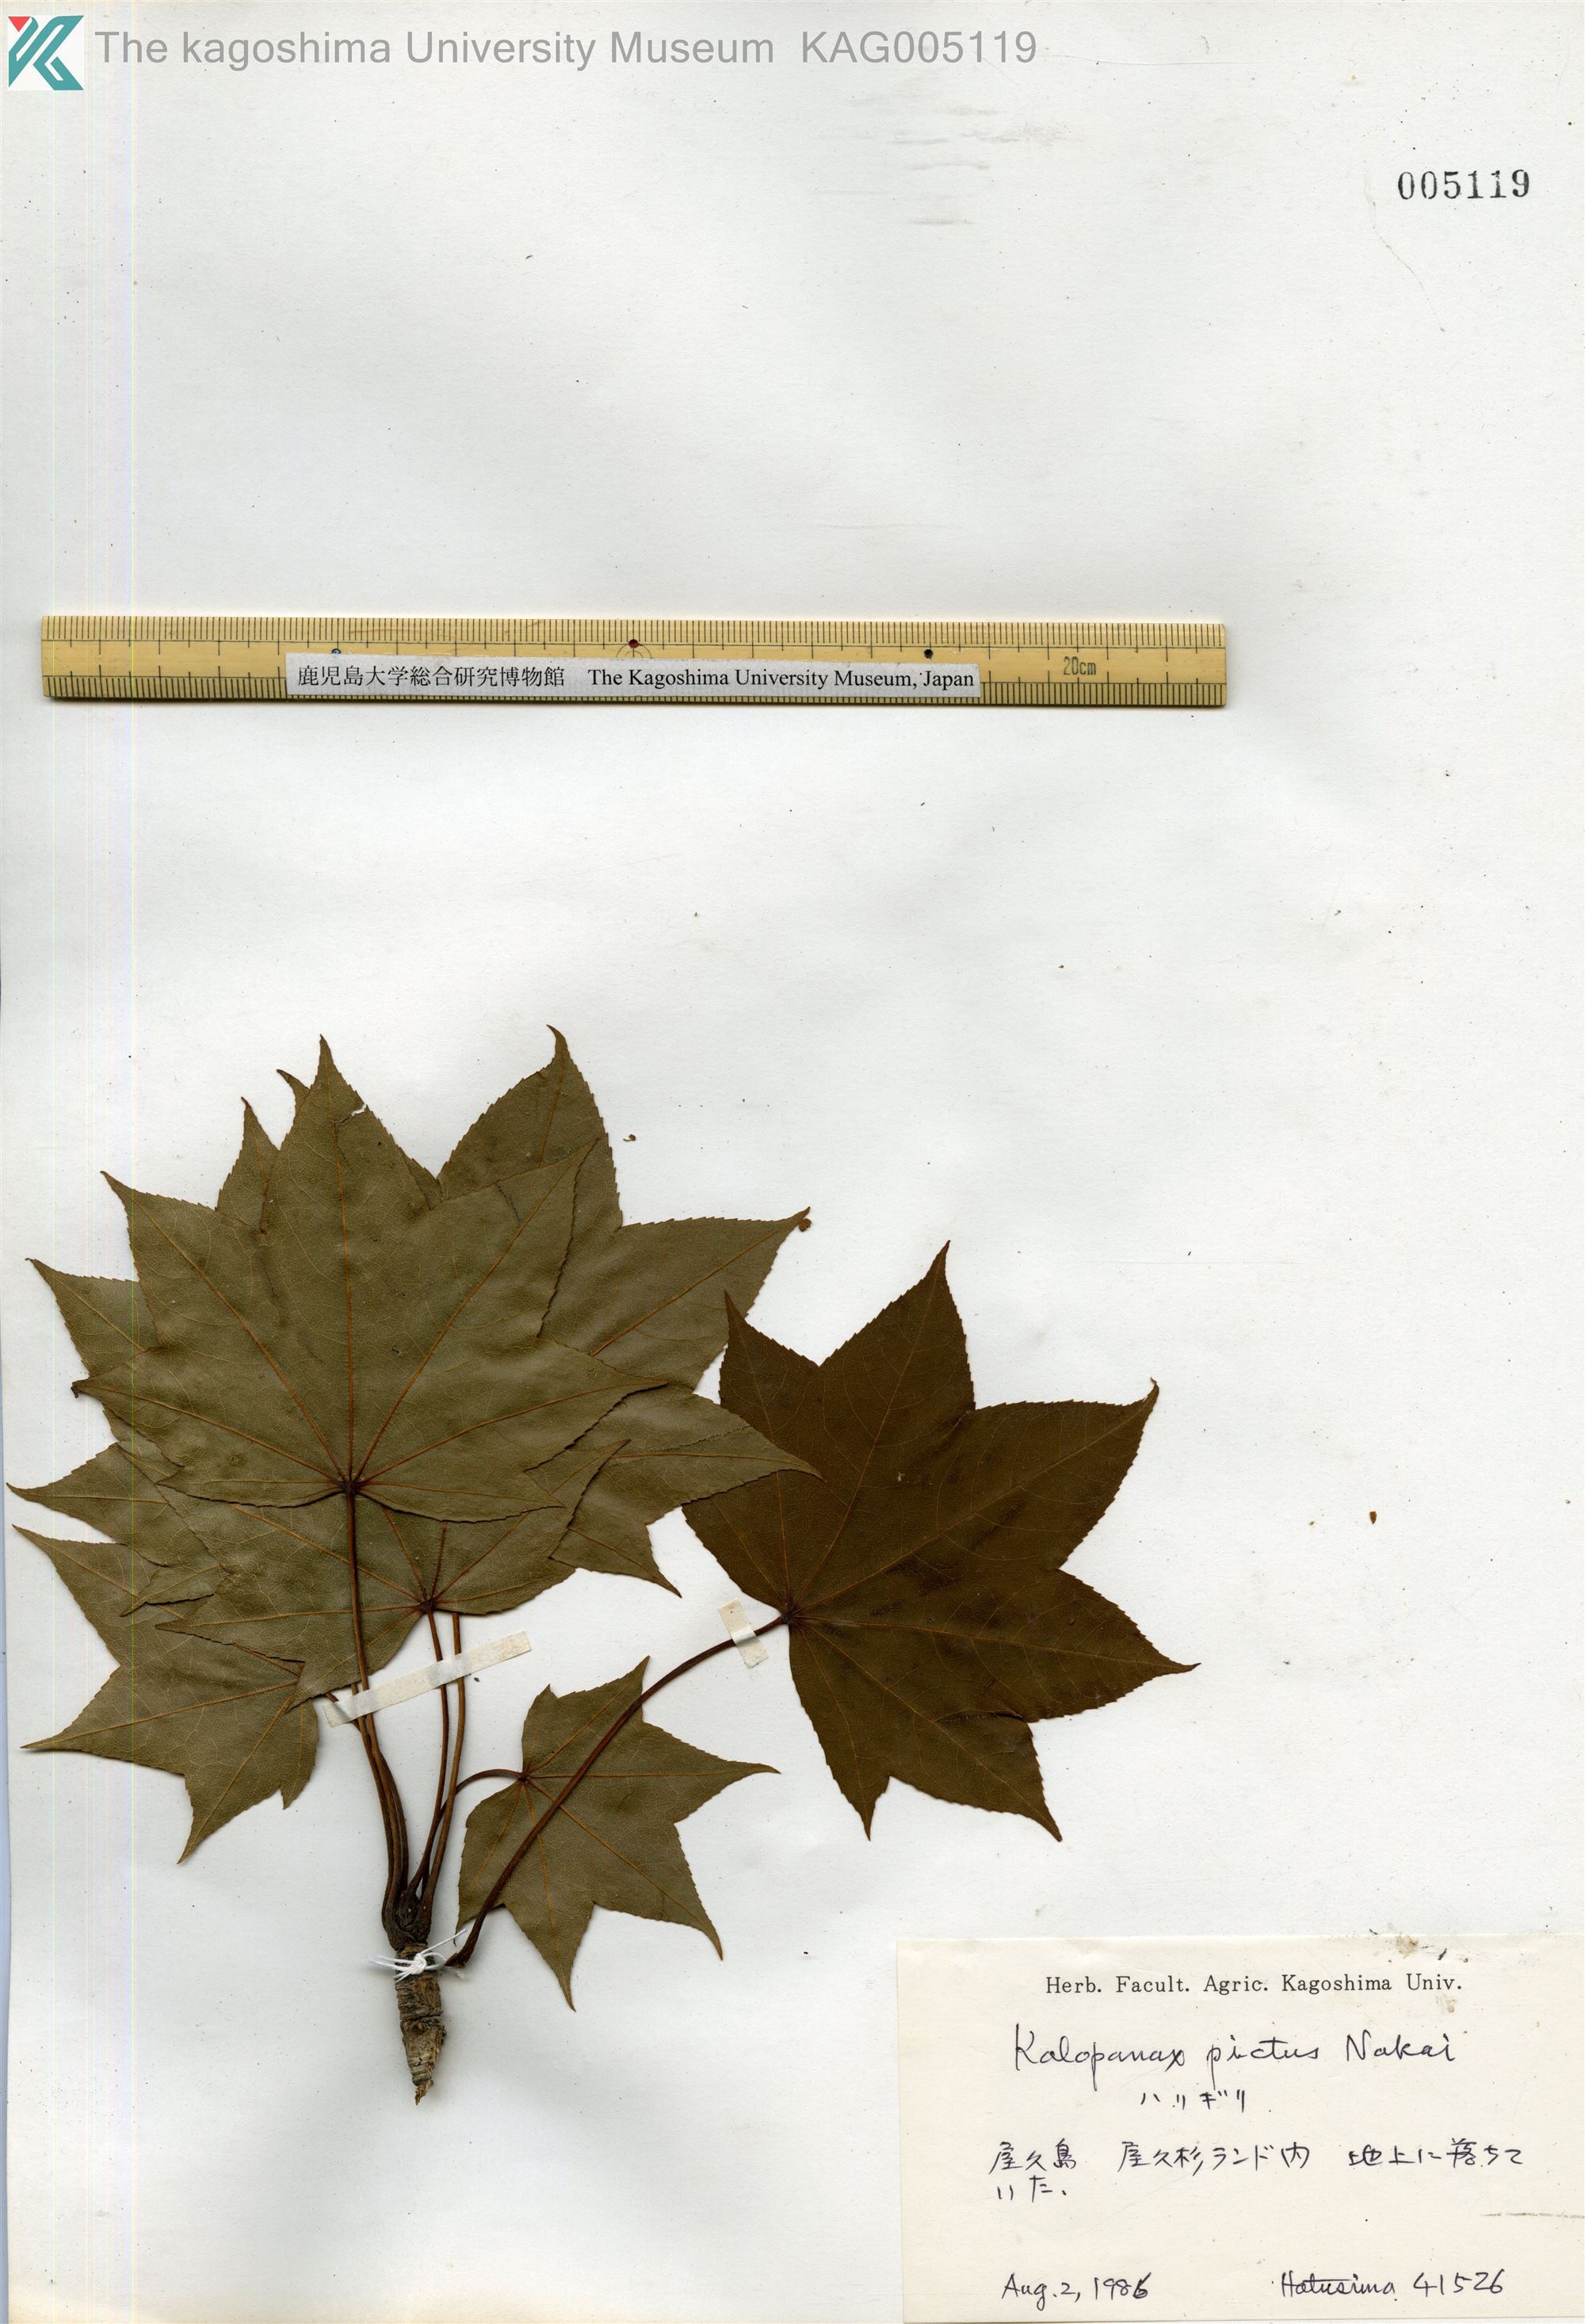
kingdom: Plantae
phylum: Tracheophyta
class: Magnoliopsida
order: Apiales
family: Araliaceae
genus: Kalopanax
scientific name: Kalopanax septemlobus
